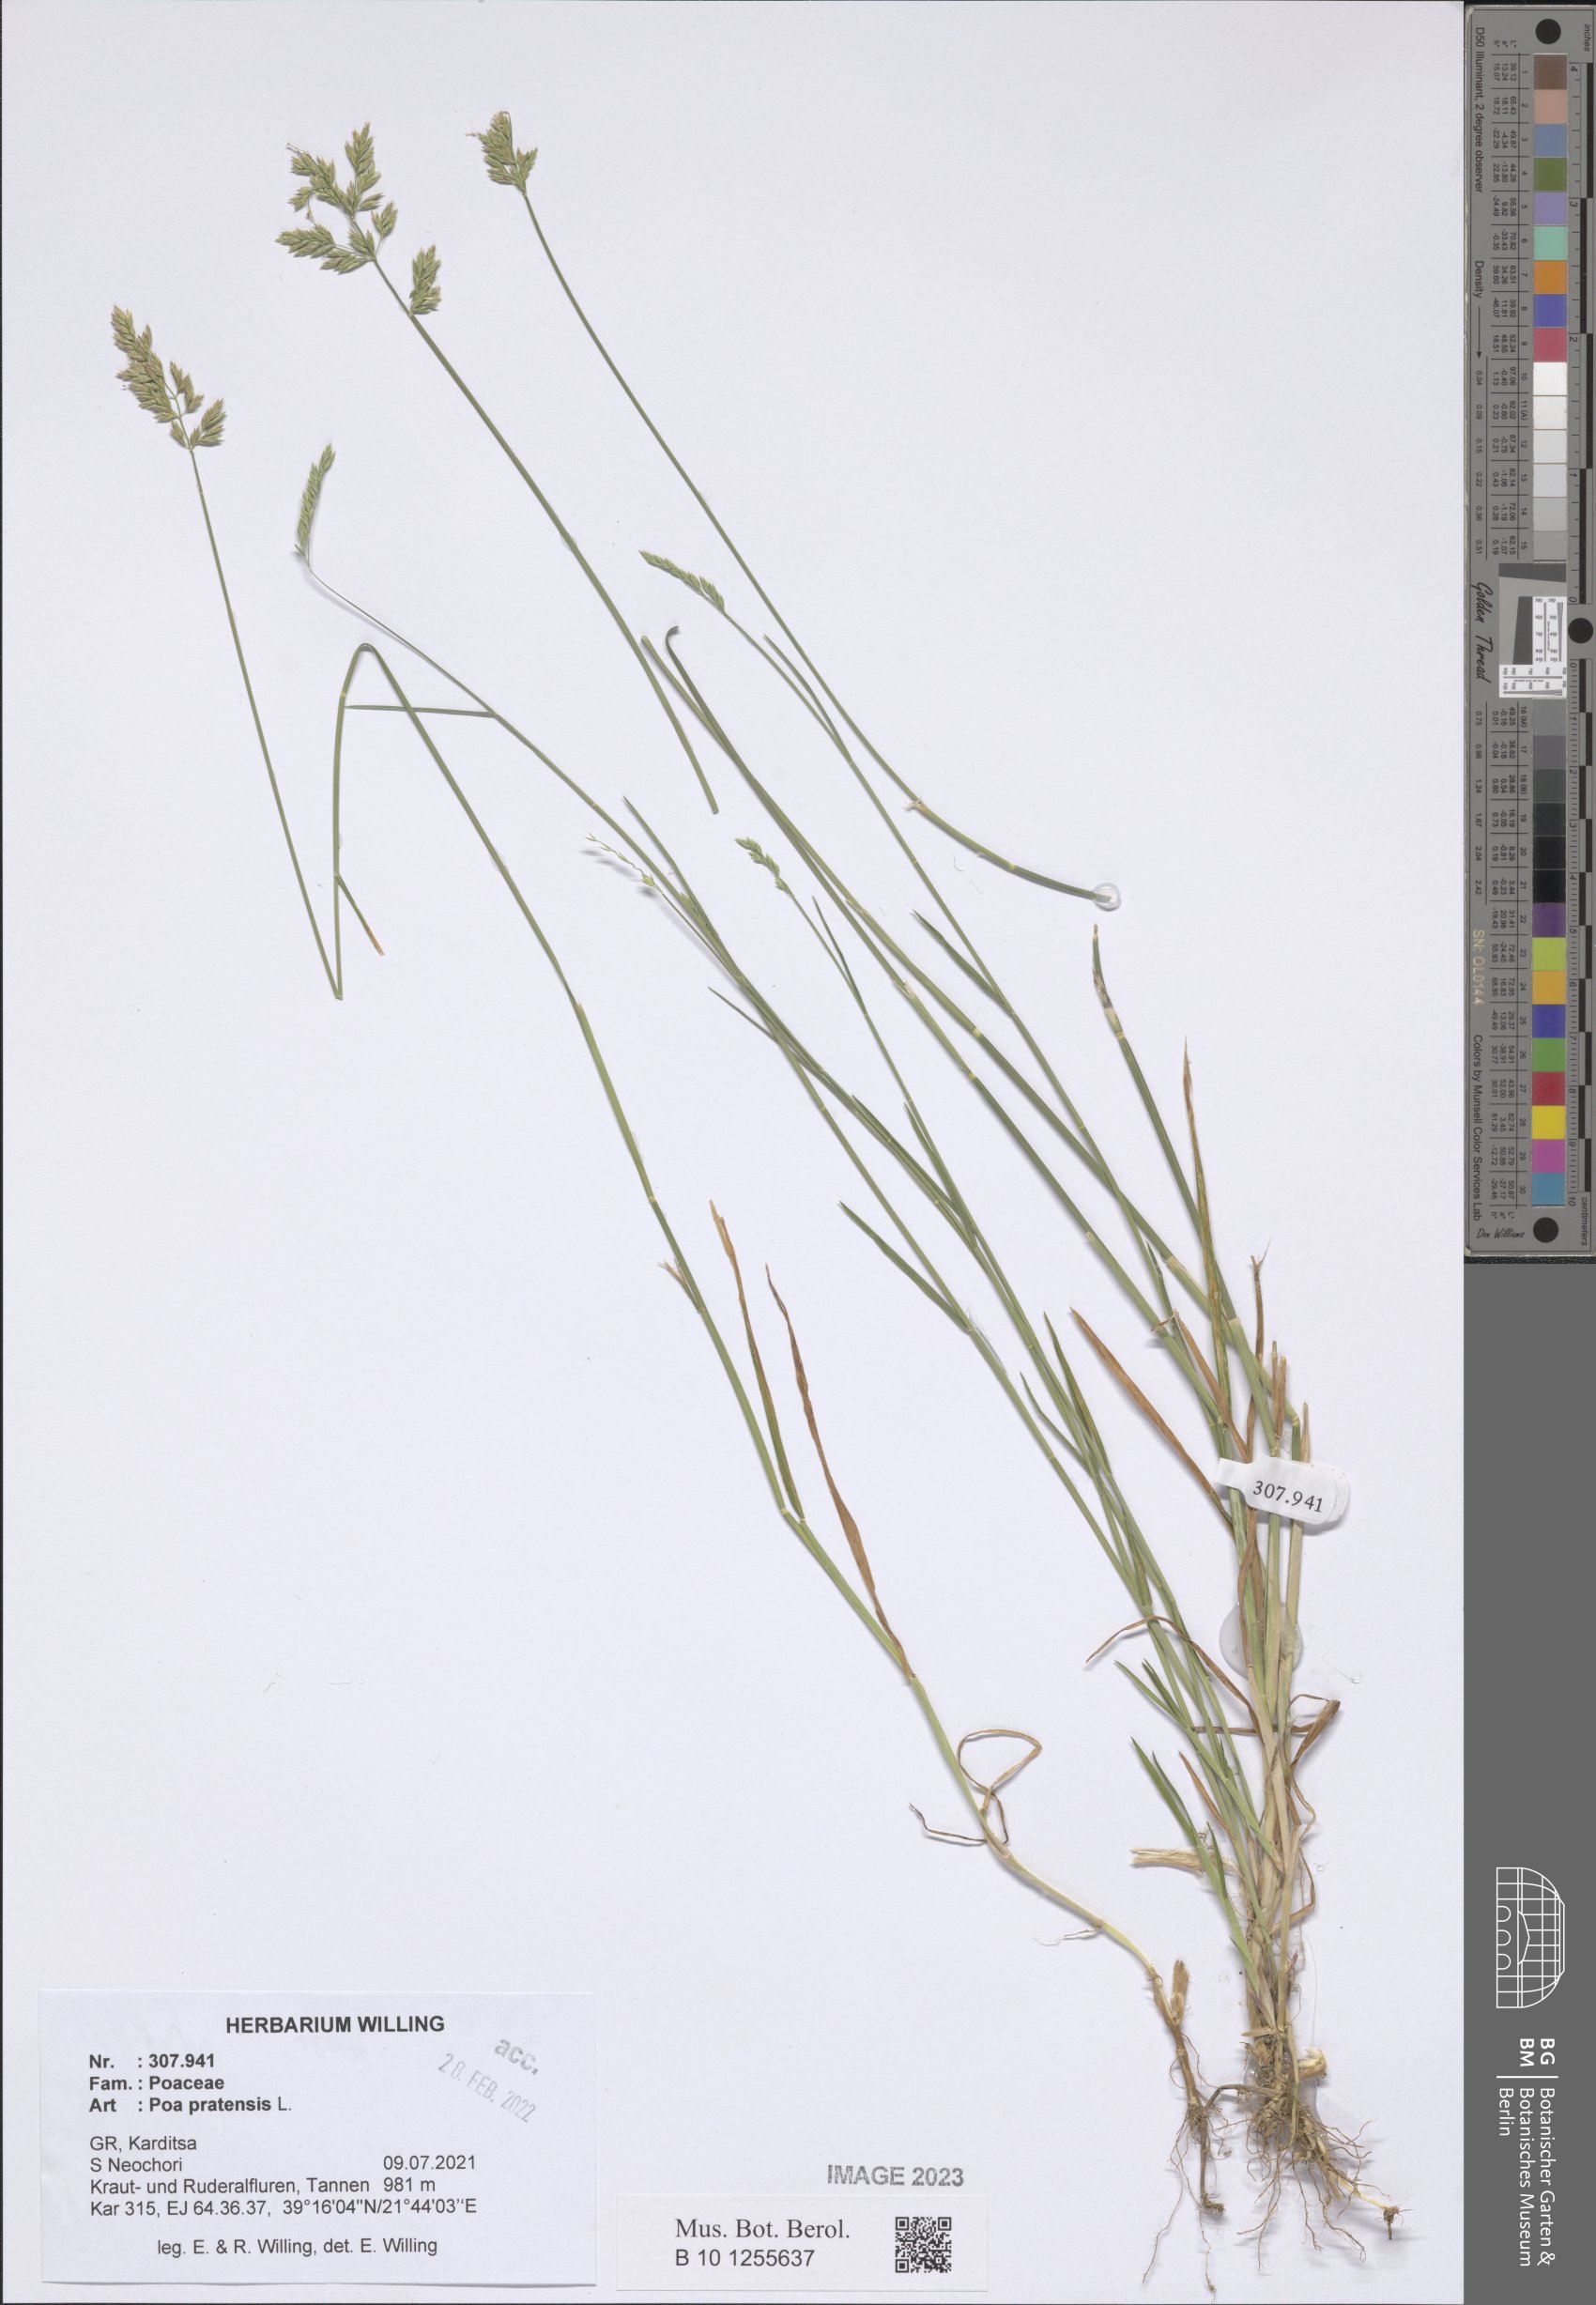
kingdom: Plantae
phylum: Tracheophyta
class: Liliopsida
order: Poales
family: Poaceae
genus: Poa
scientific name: Poa pratensis
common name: Kentucky bluegrass
